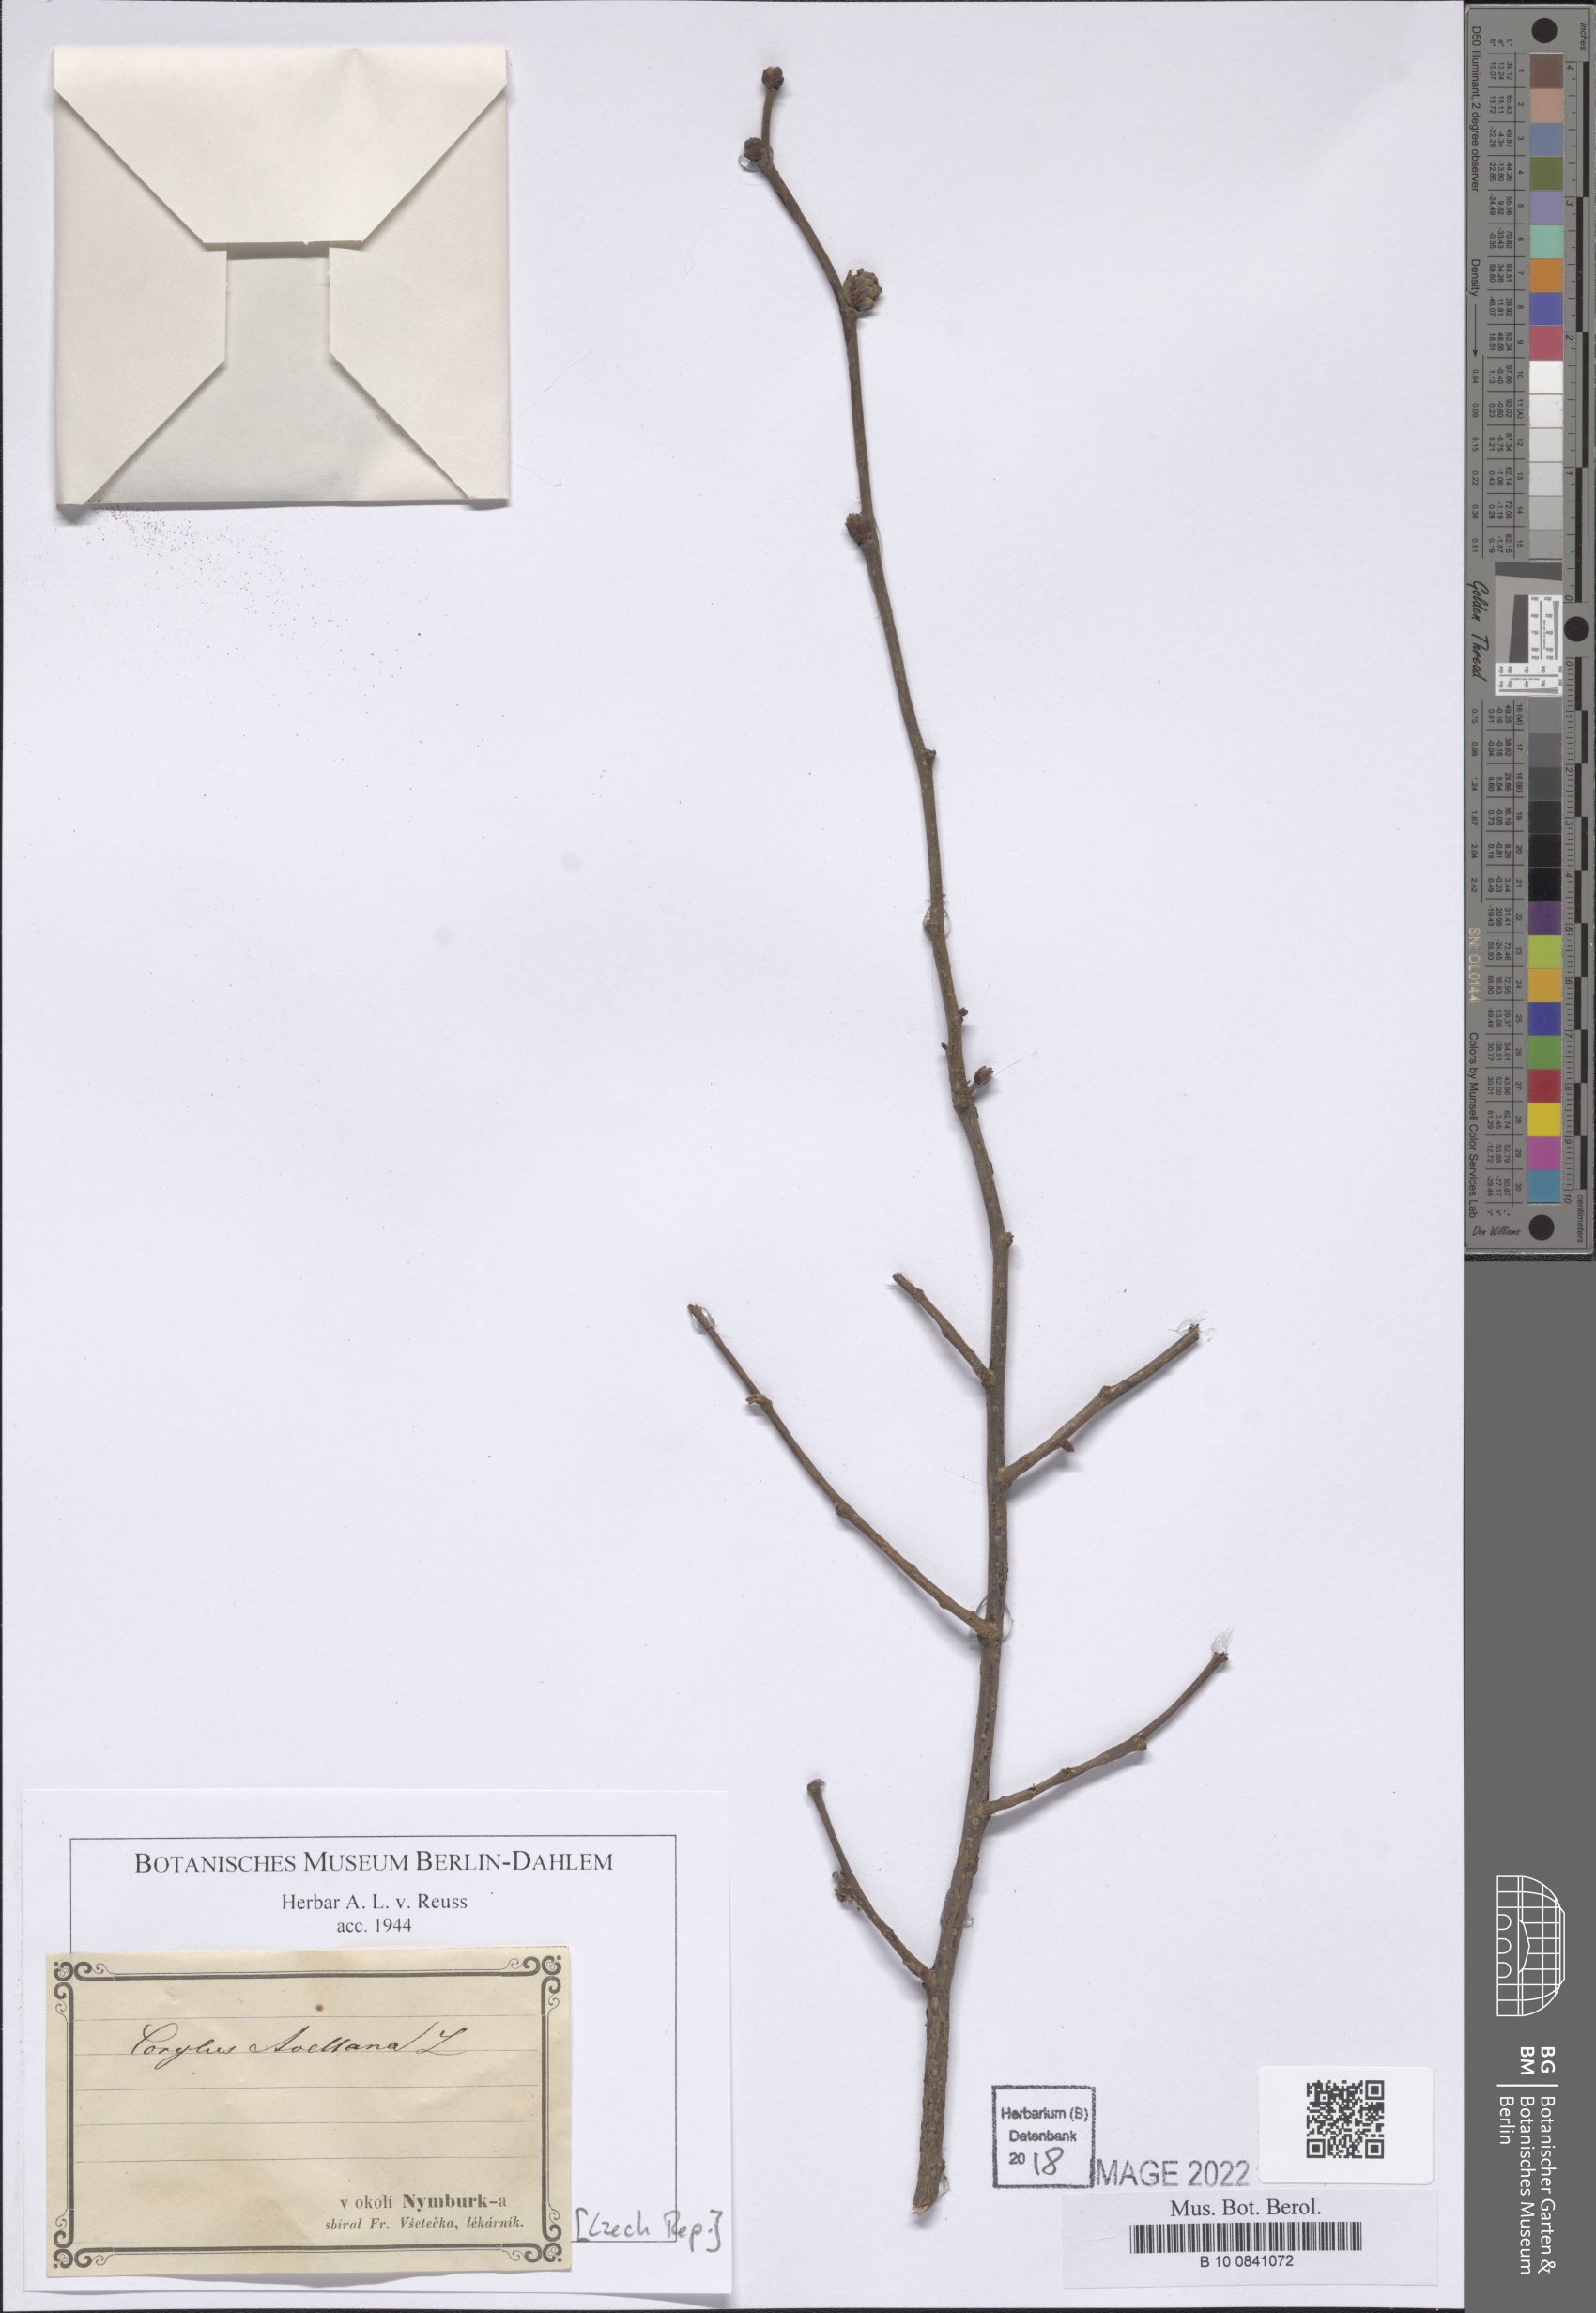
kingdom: Plantae
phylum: Tracheophyta
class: Magnoliopsida
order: Fagales
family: Betulaceae
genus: Corylus
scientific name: Corylus avellana
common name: European hazel
